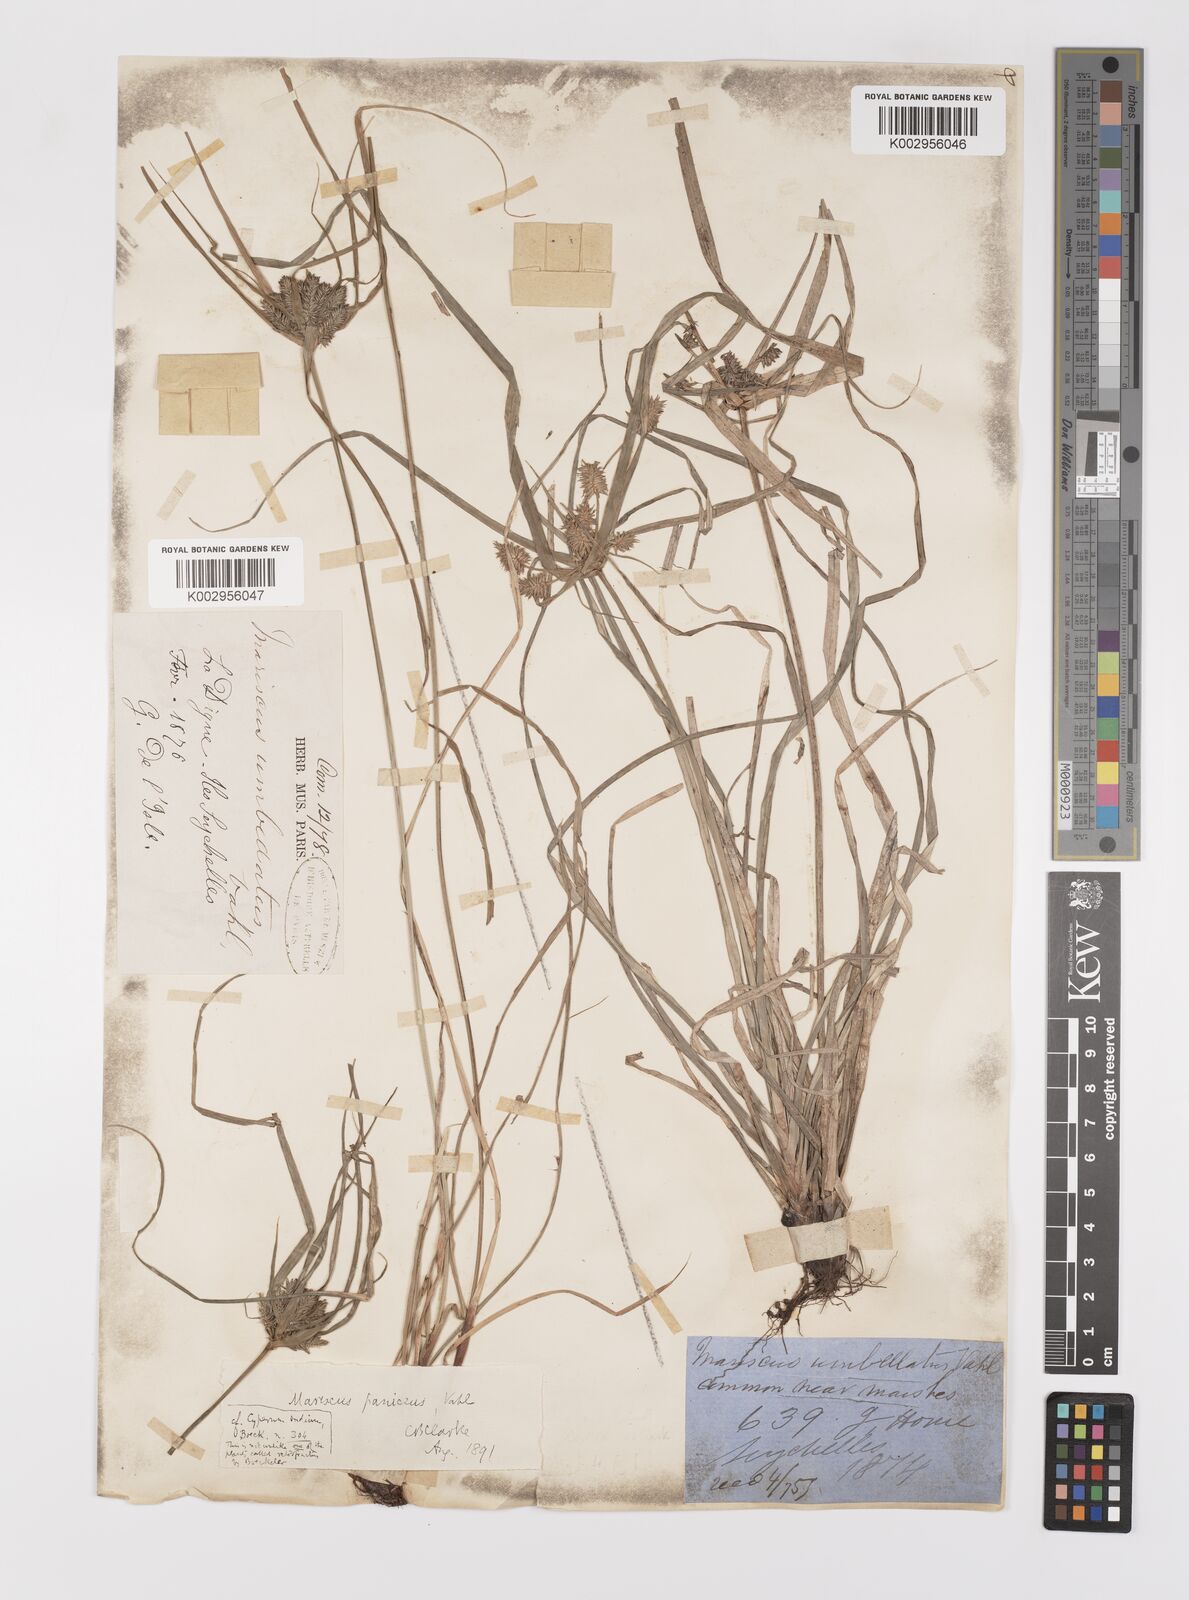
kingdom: Plantae
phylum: Tracheophyta
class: Liliopsida
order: Poales
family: Cyperaceae
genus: Cyperus
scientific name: Cyperus paniceus
